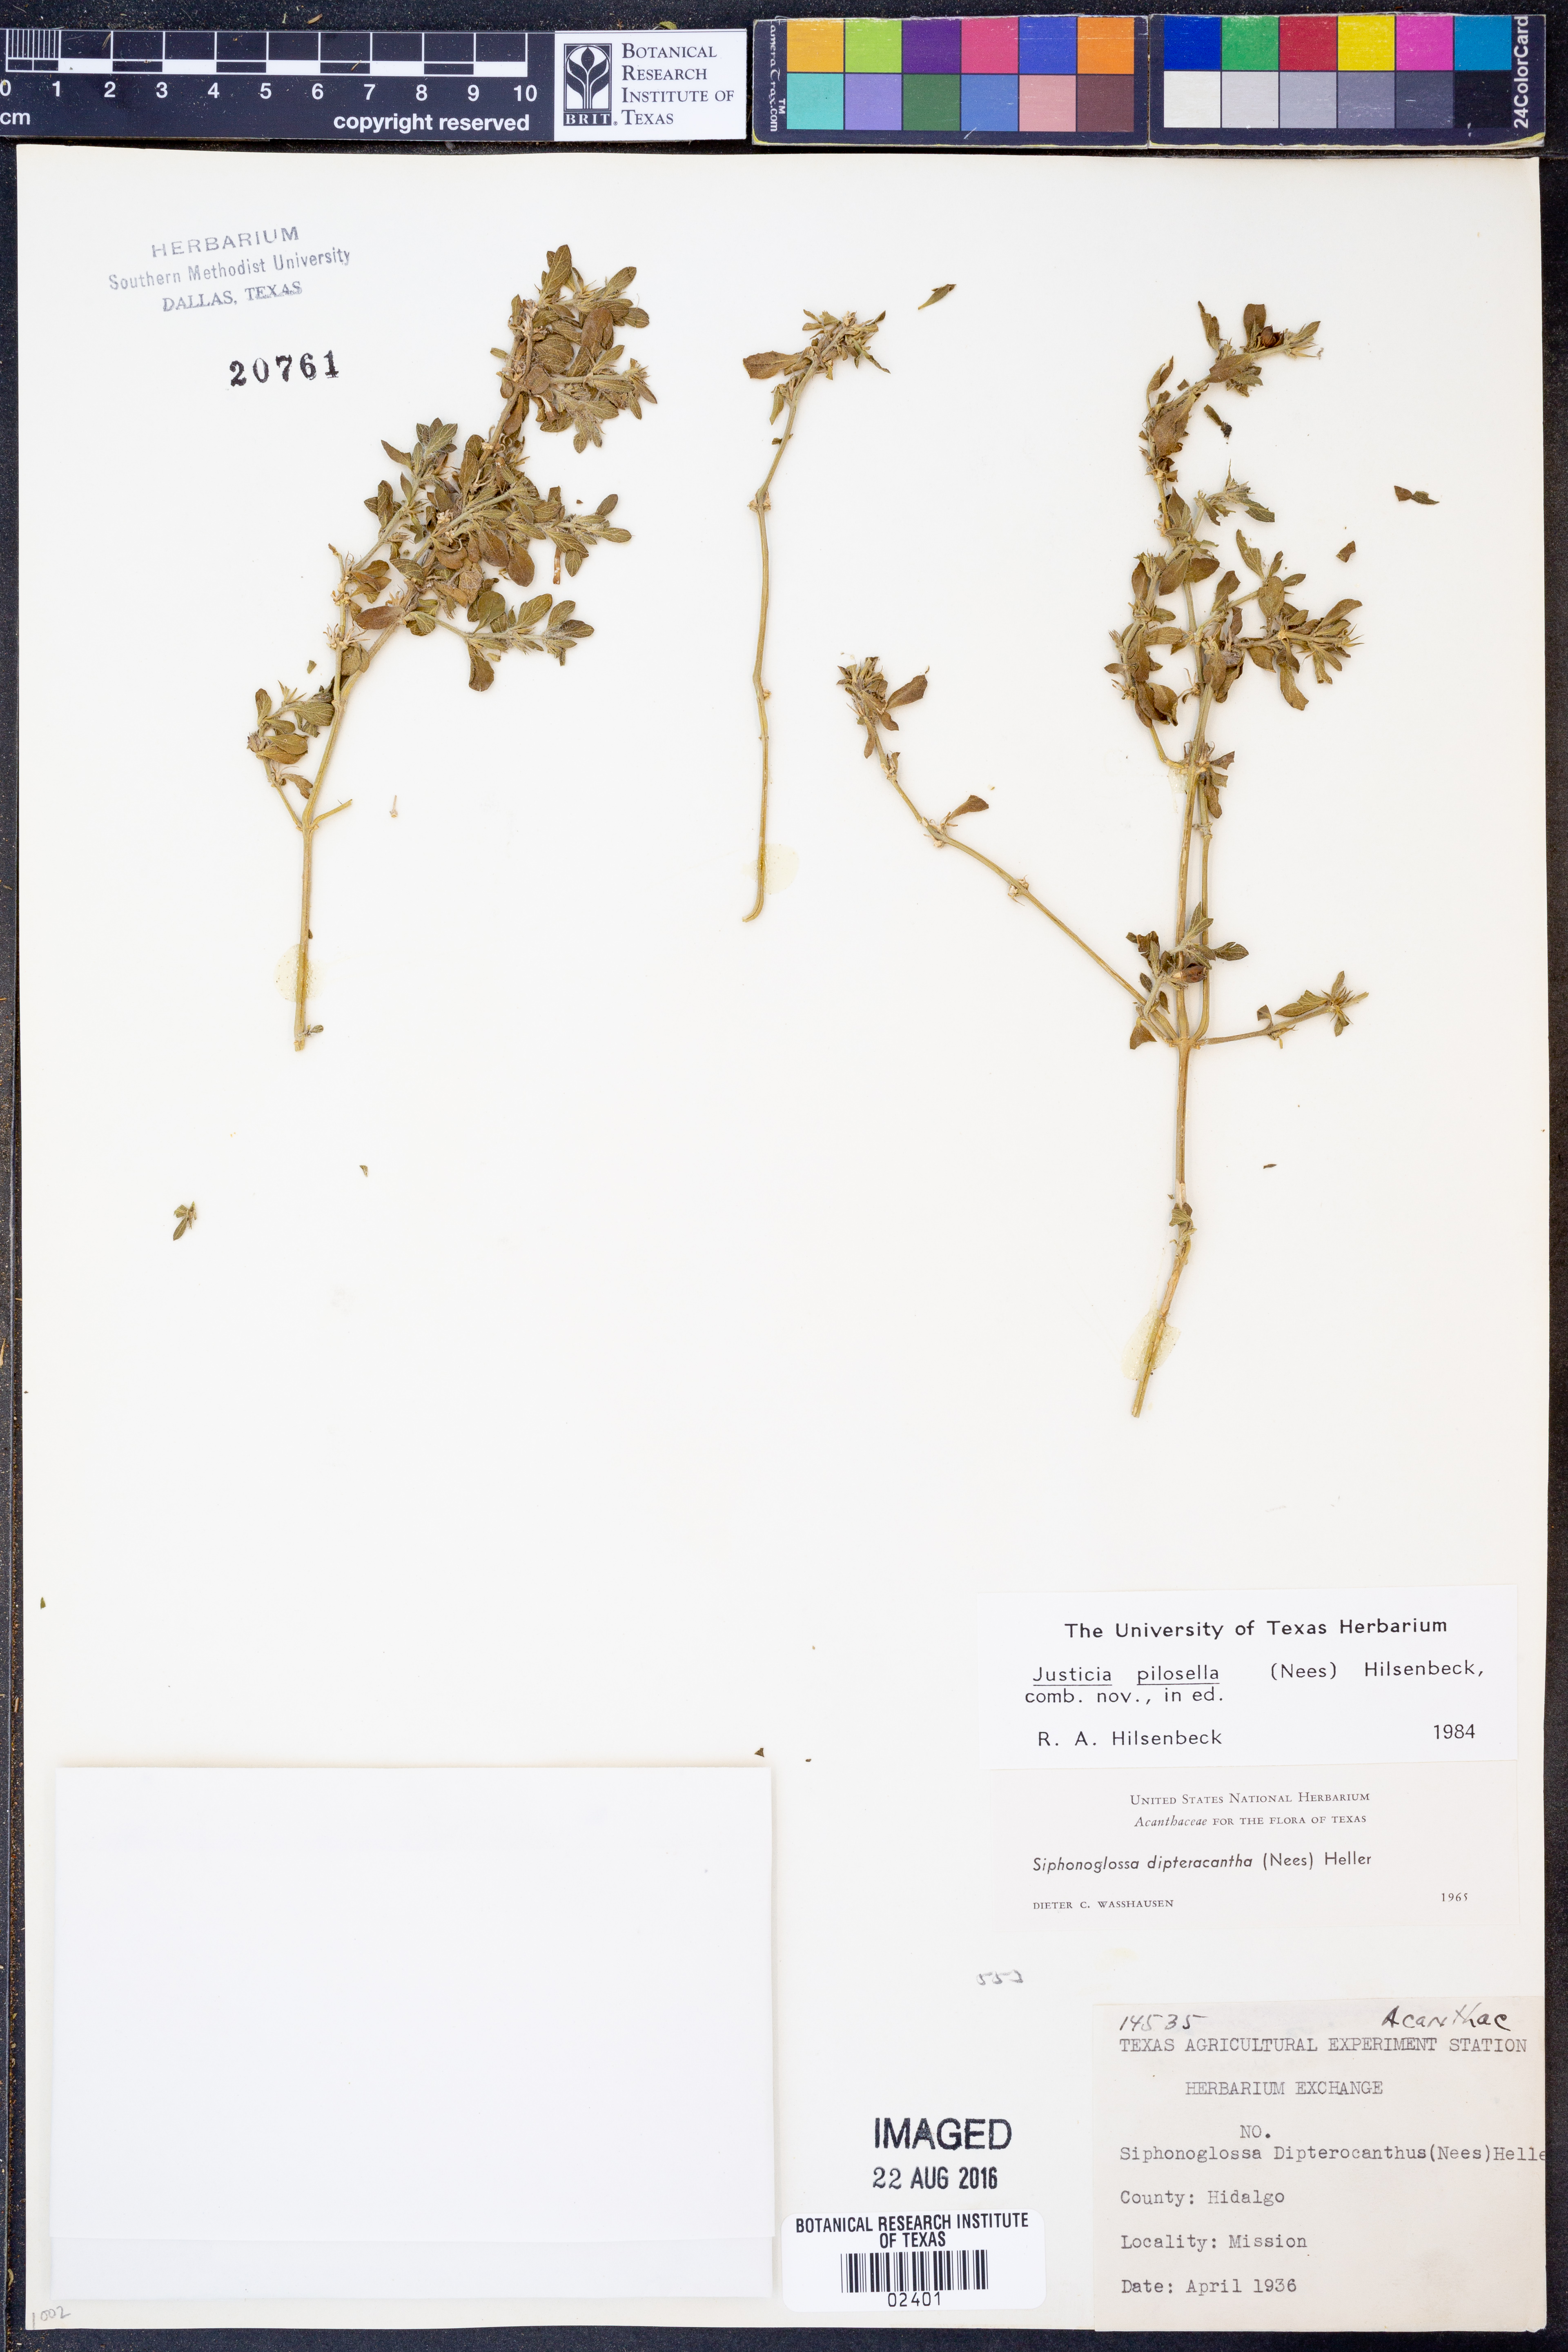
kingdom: Plantae
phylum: Tracheophyta
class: Magnoliopsida
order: Lamiales
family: Acanthaceae
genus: Justicia
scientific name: Justicia pilosella
